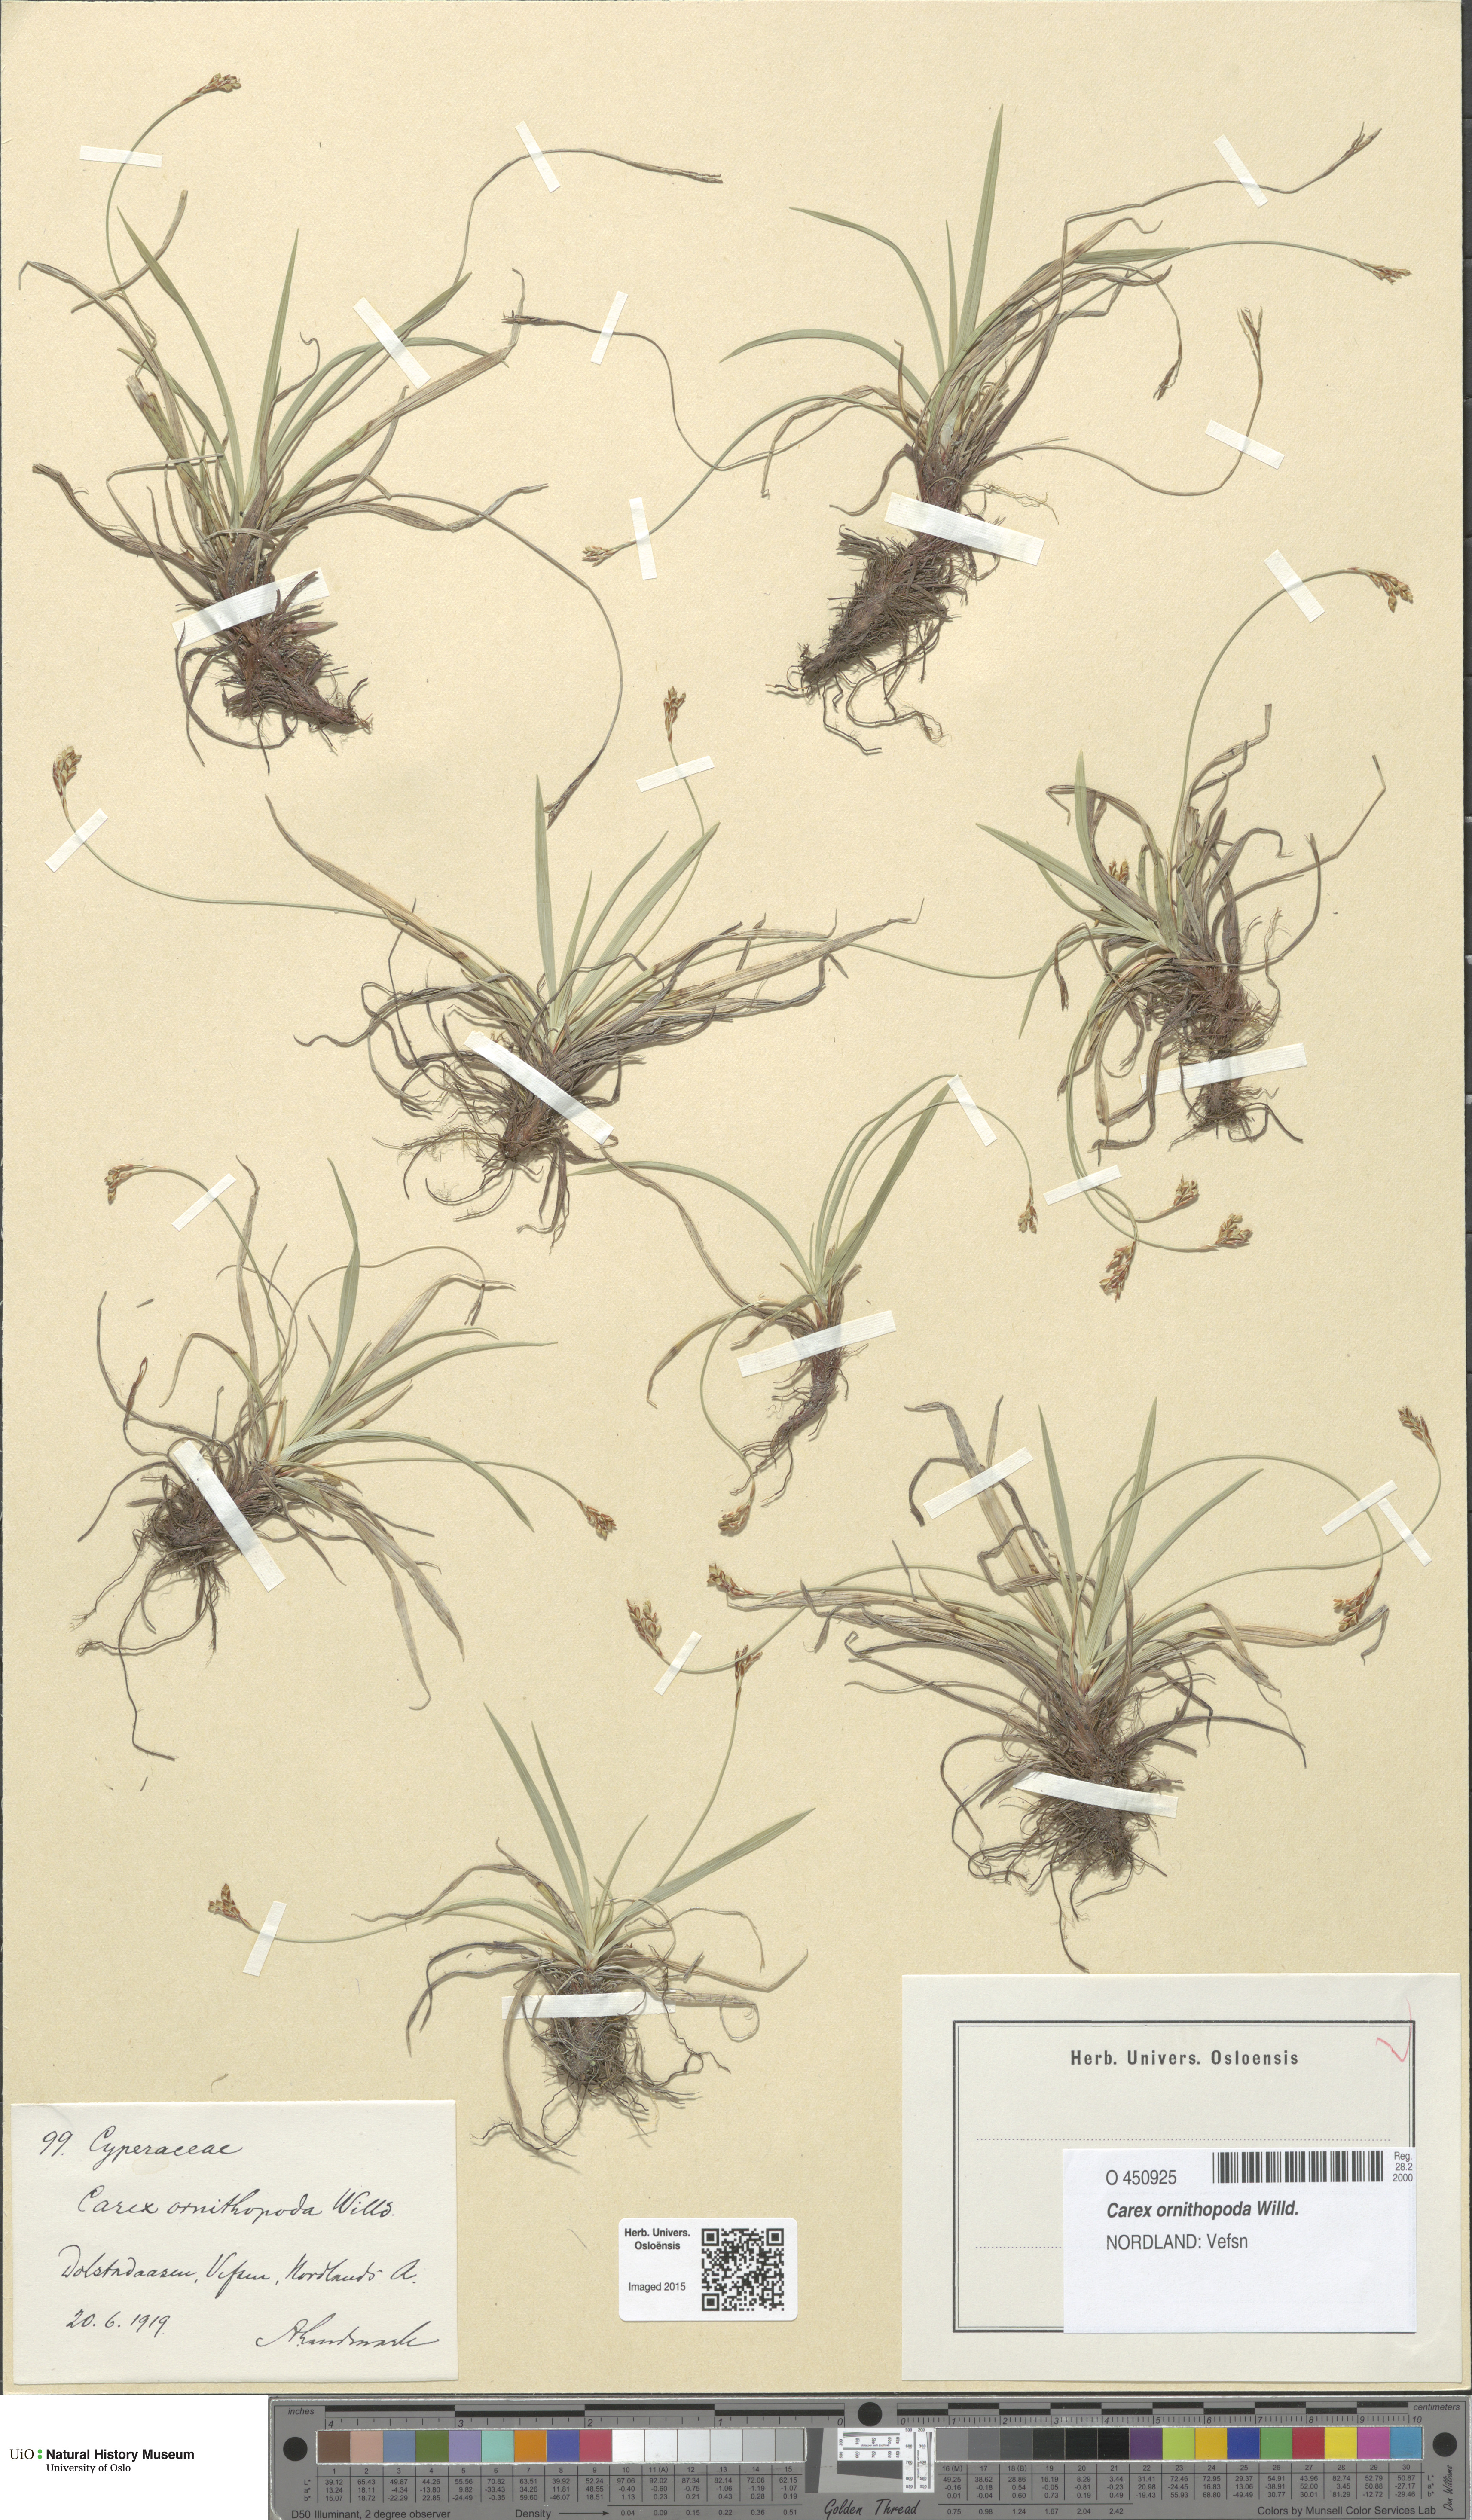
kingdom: Plantae
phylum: Tracheophyta
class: Liliopsida
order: Poales
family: Cyperaceae
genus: Carex
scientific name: Carex ornithopoda
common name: Bird's-foot sedge
